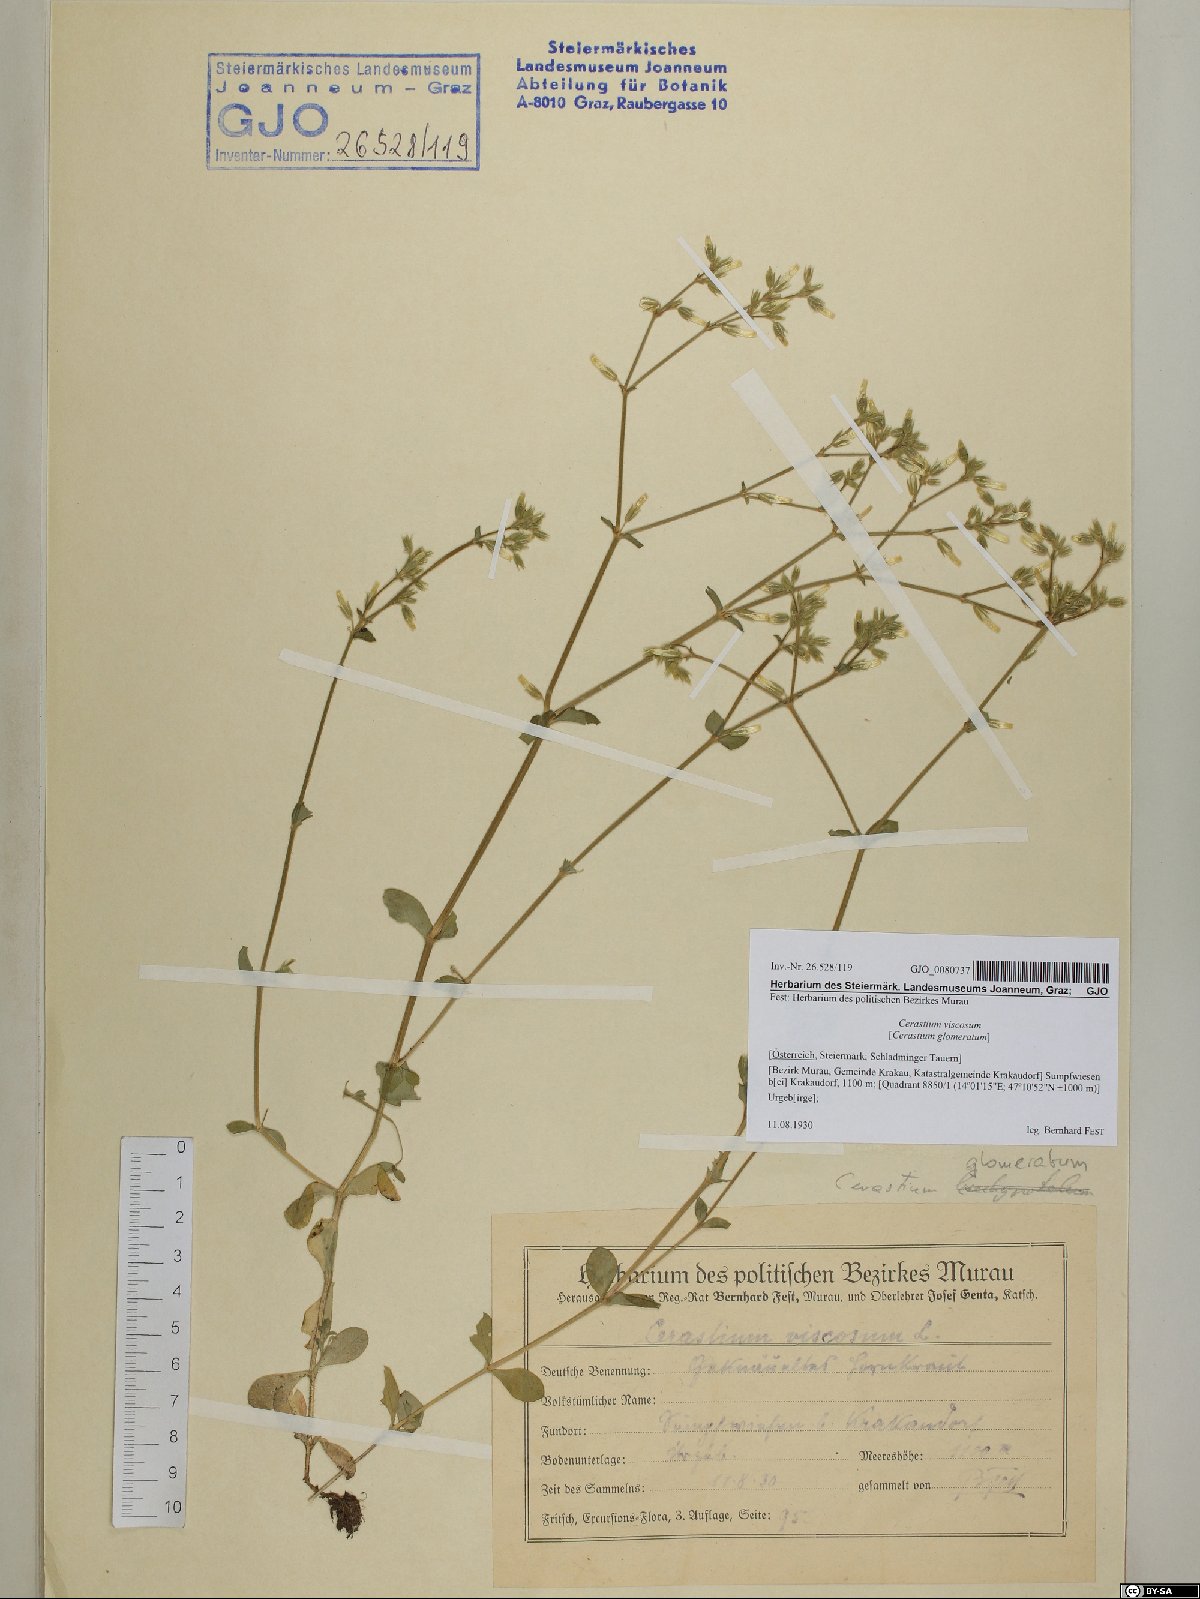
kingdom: Plantae
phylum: Tracheophyta
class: Magnoliopsida
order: Caryophyllales
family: Caryophyllaceae
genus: Cerastium
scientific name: Cerastium holosteoides
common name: Big chickweed
